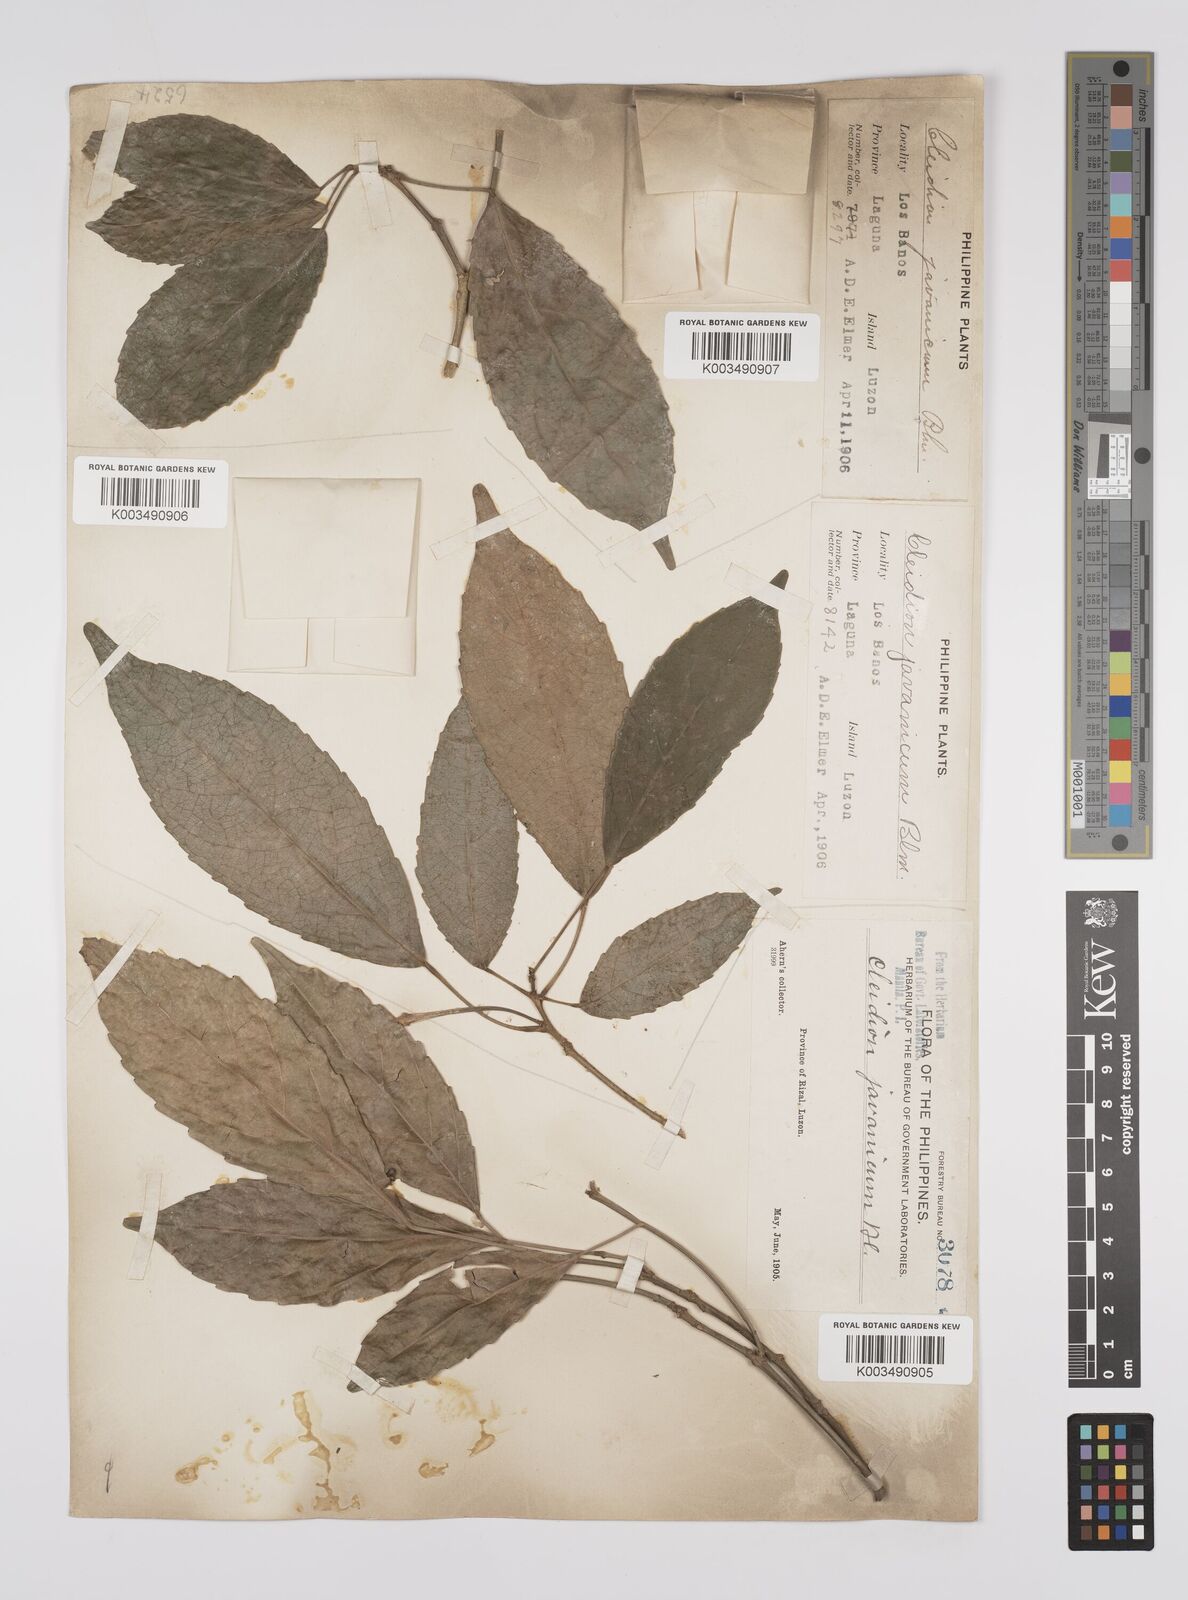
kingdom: Plantae
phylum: Tracheophyta
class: Magnoliopsida
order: Malpighiales
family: Euphorbiaceae
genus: Cleidion
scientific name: Cleidion javanicum
